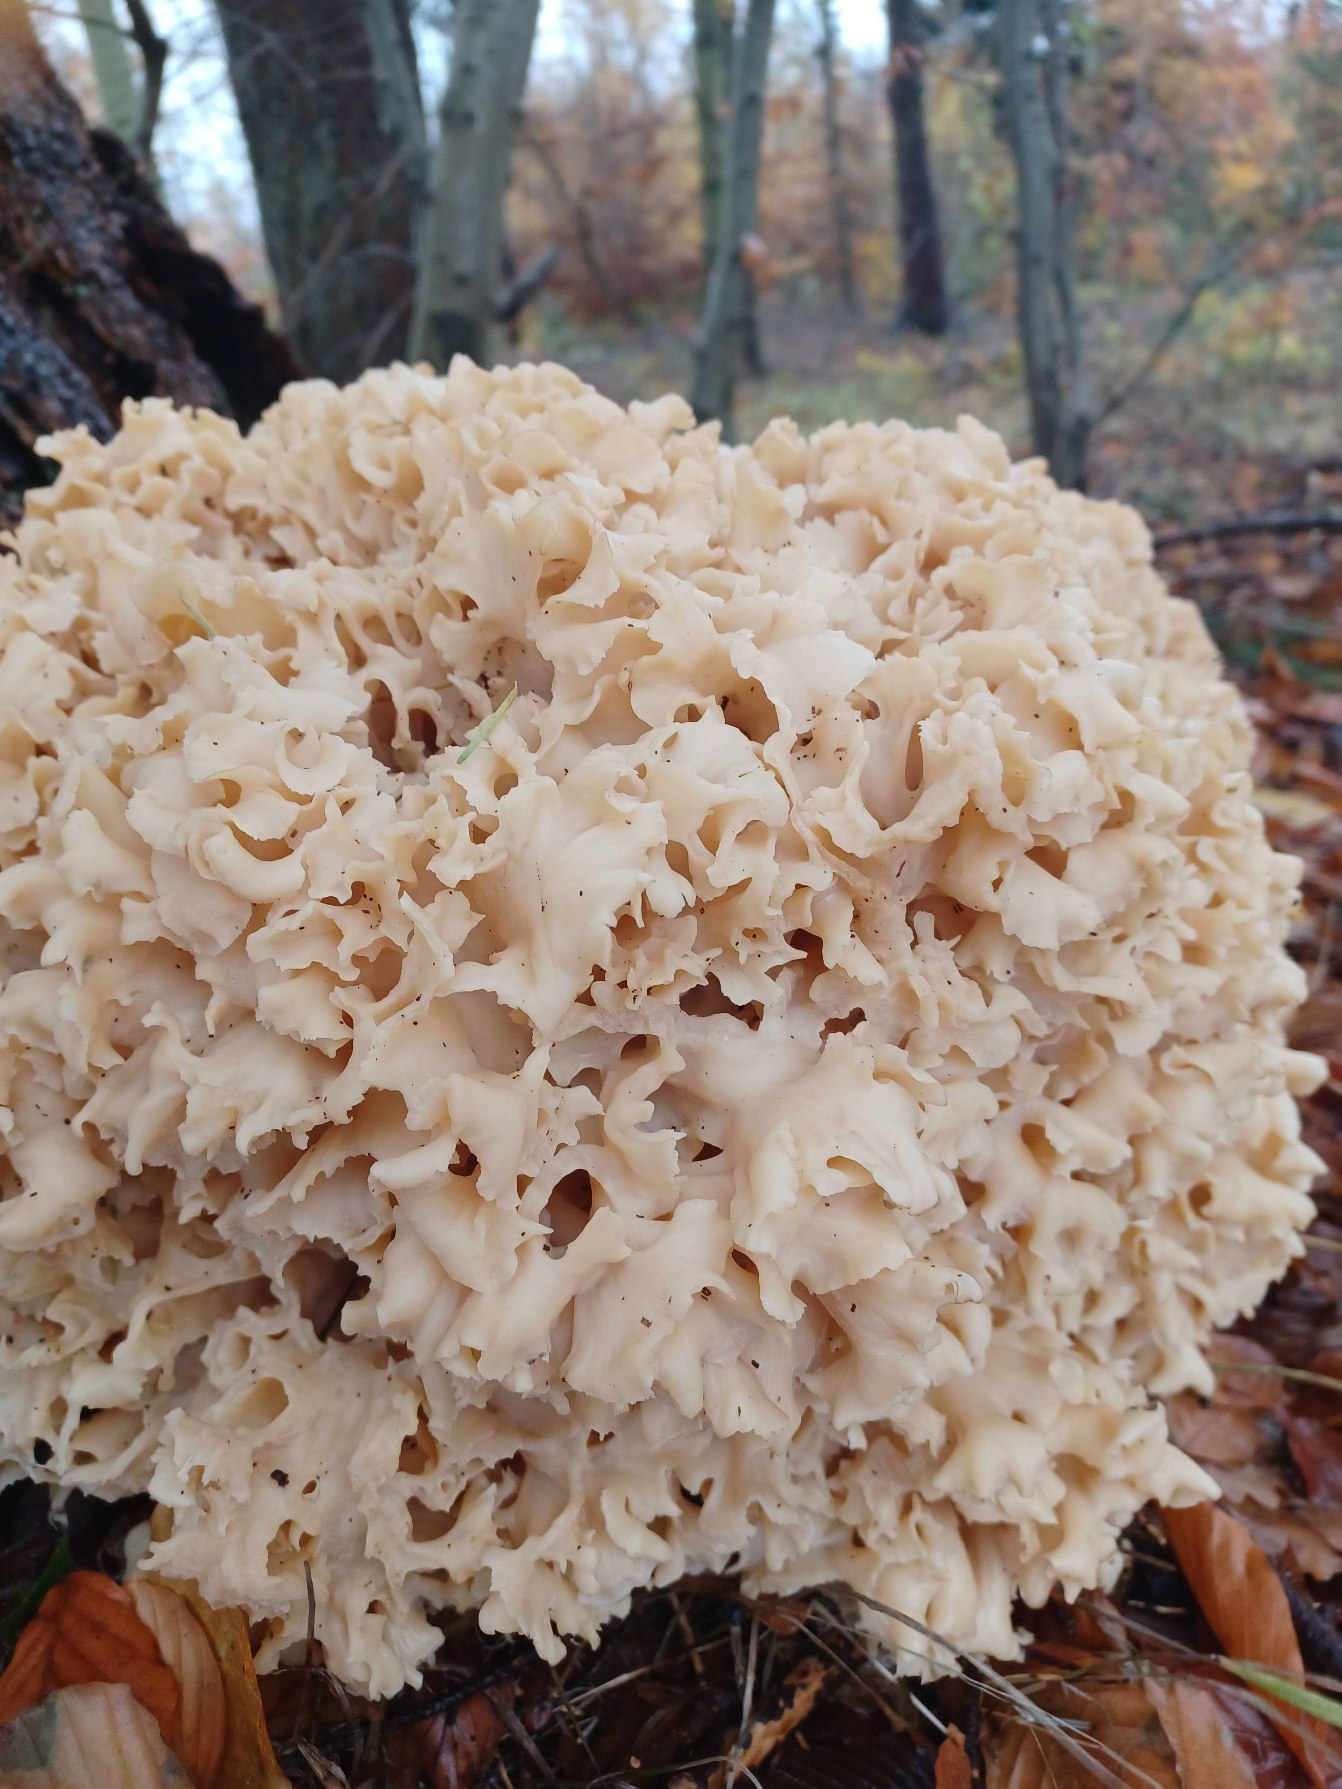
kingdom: Fungi
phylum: Basidiomycota
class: Agaricomycetes
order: Polyporales
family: Sparassidaceae
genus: Sparassis
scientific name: Sparassis crispa
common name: Kruset blomkålssvamp
